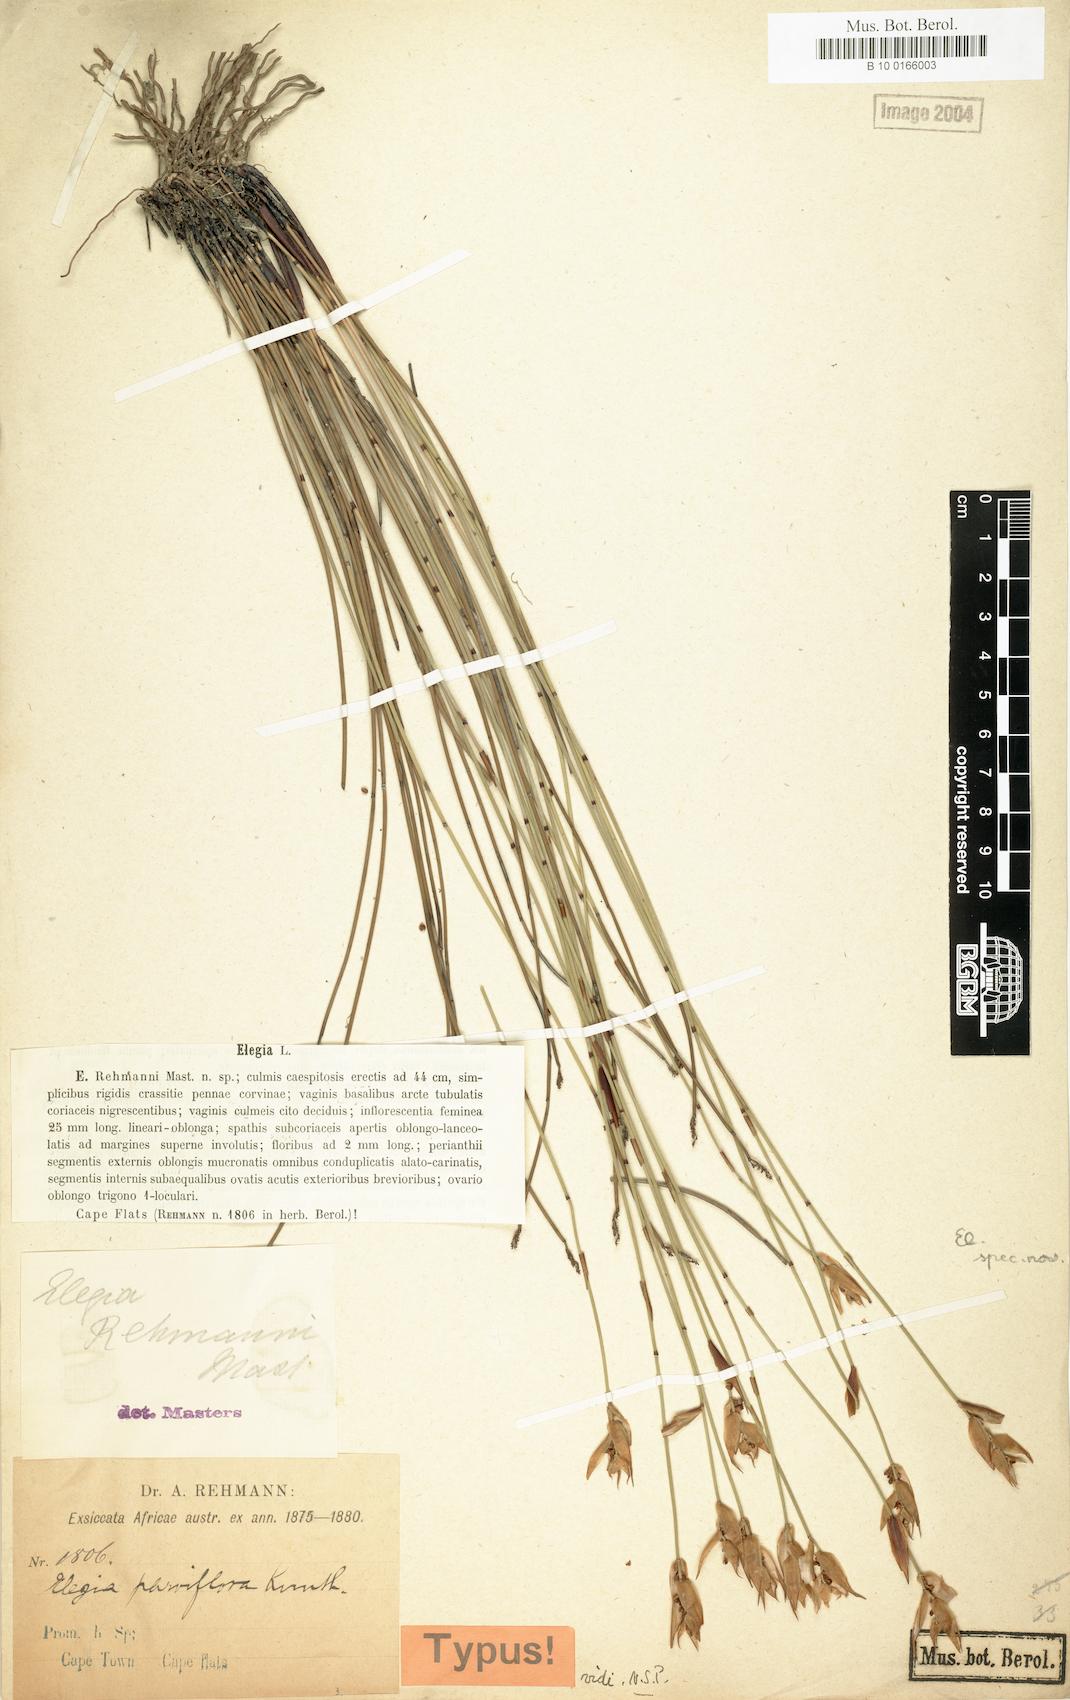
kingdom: Plantae
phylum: Tracheophyta
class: Liliopsida
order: Poales
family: Restionaceae
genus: Cannomois
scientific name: Cannomois parviflora
